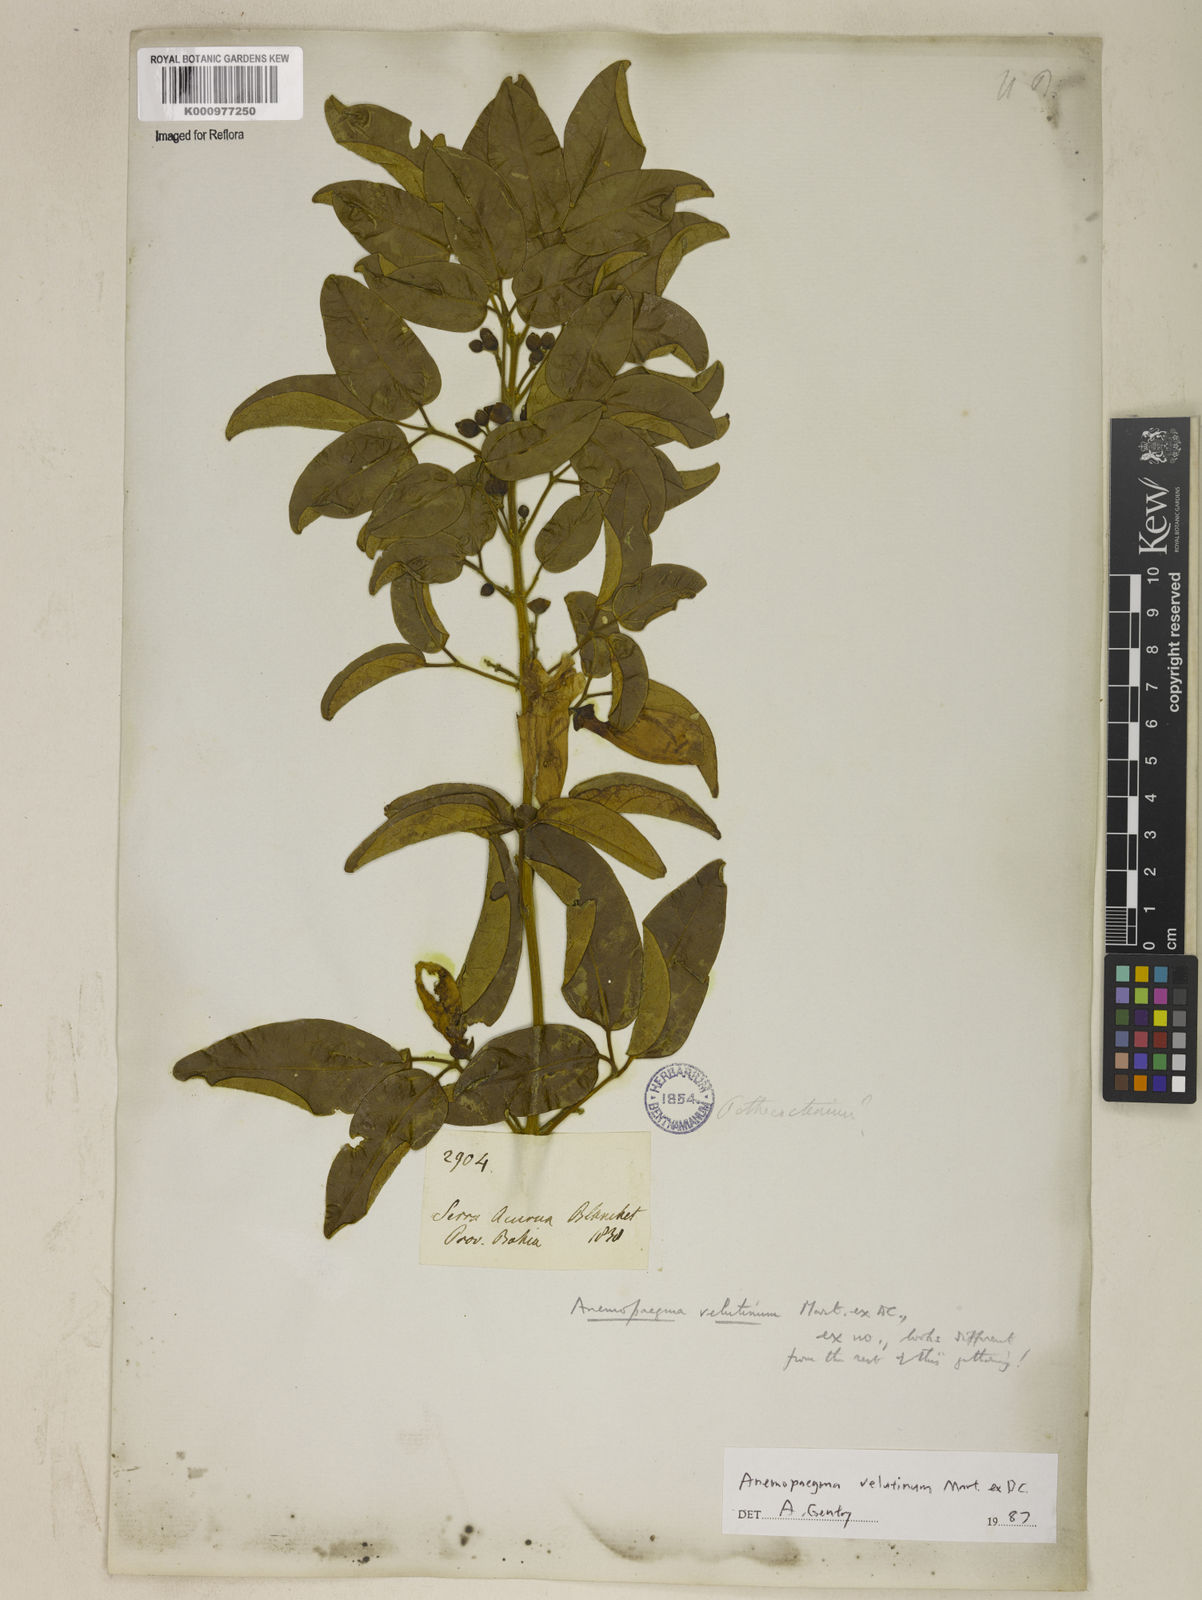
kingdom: Plantae
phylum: Tracheophyta
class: Magnoliopsida
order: Lamiales
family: Bignoniaceae
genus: Anemopaegma
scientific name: Anemopaegma velutinum
